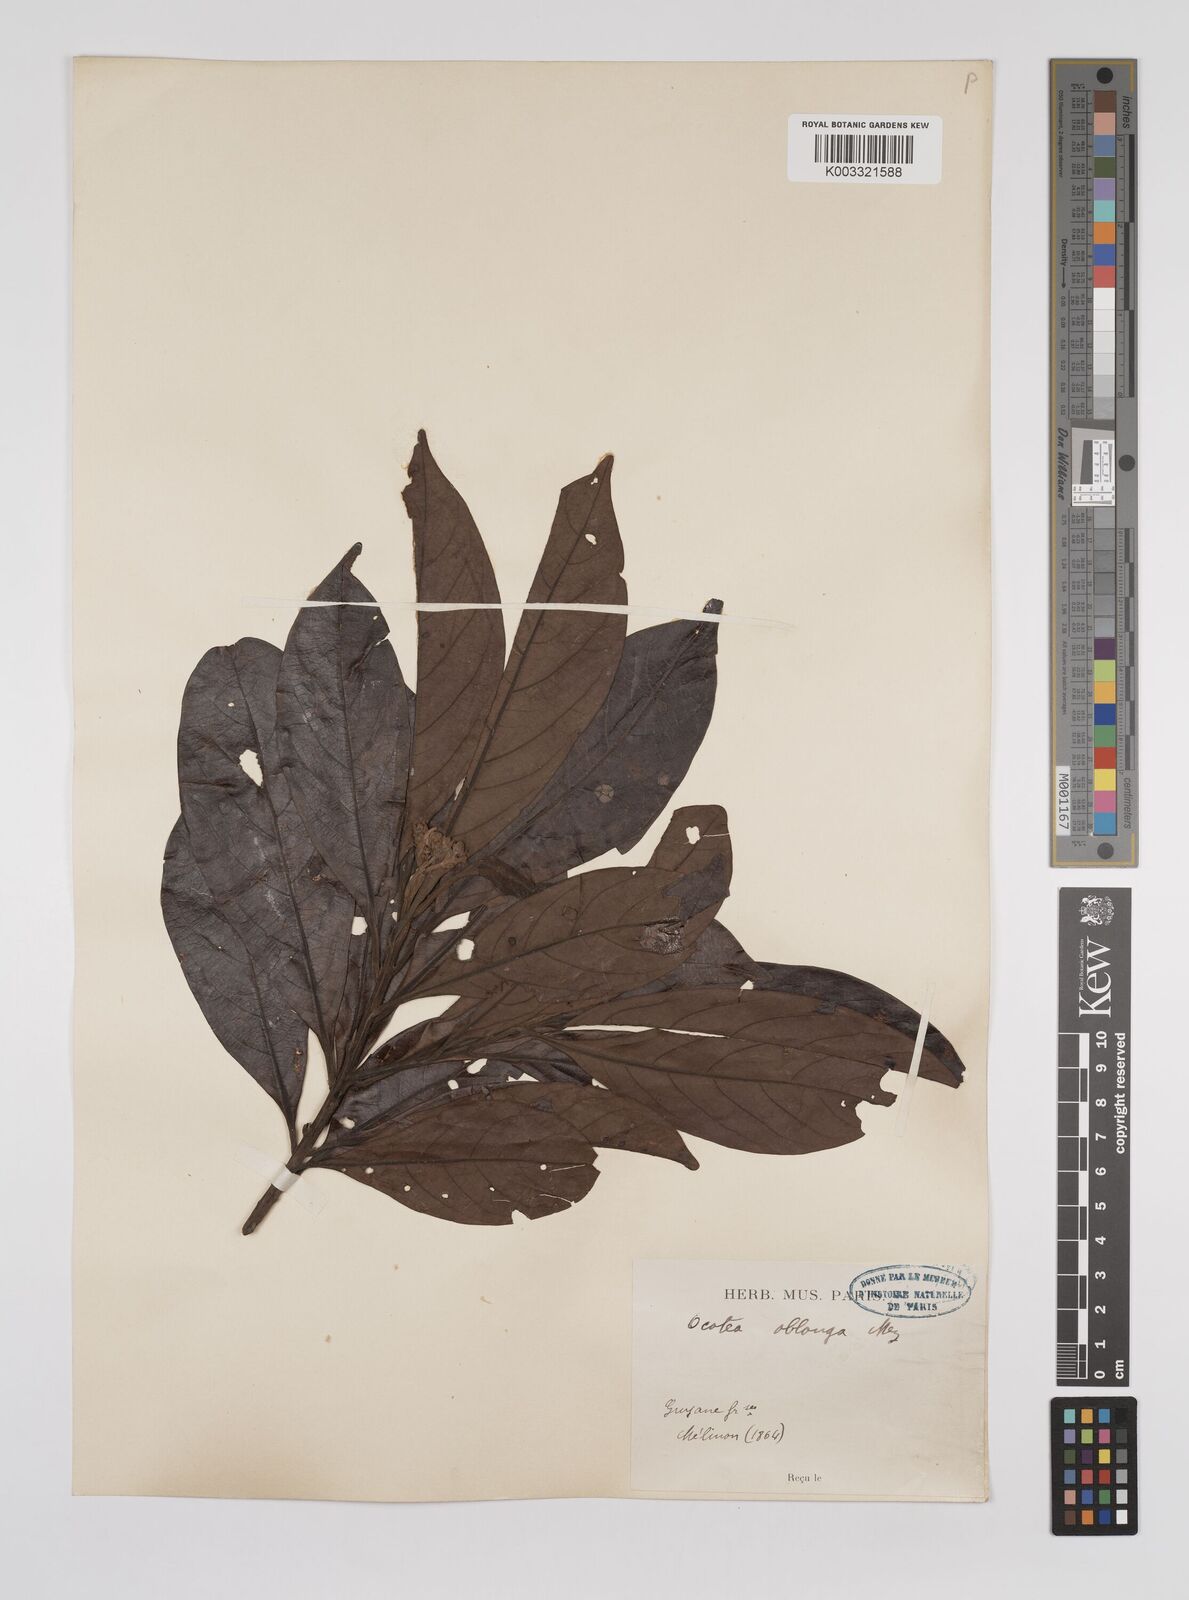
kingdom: Plantae
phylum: Tracheophyta
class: Magnoliopsida
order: Laurales
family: Lauraceae
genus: Ocotea
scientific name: Ocotea oblonga
